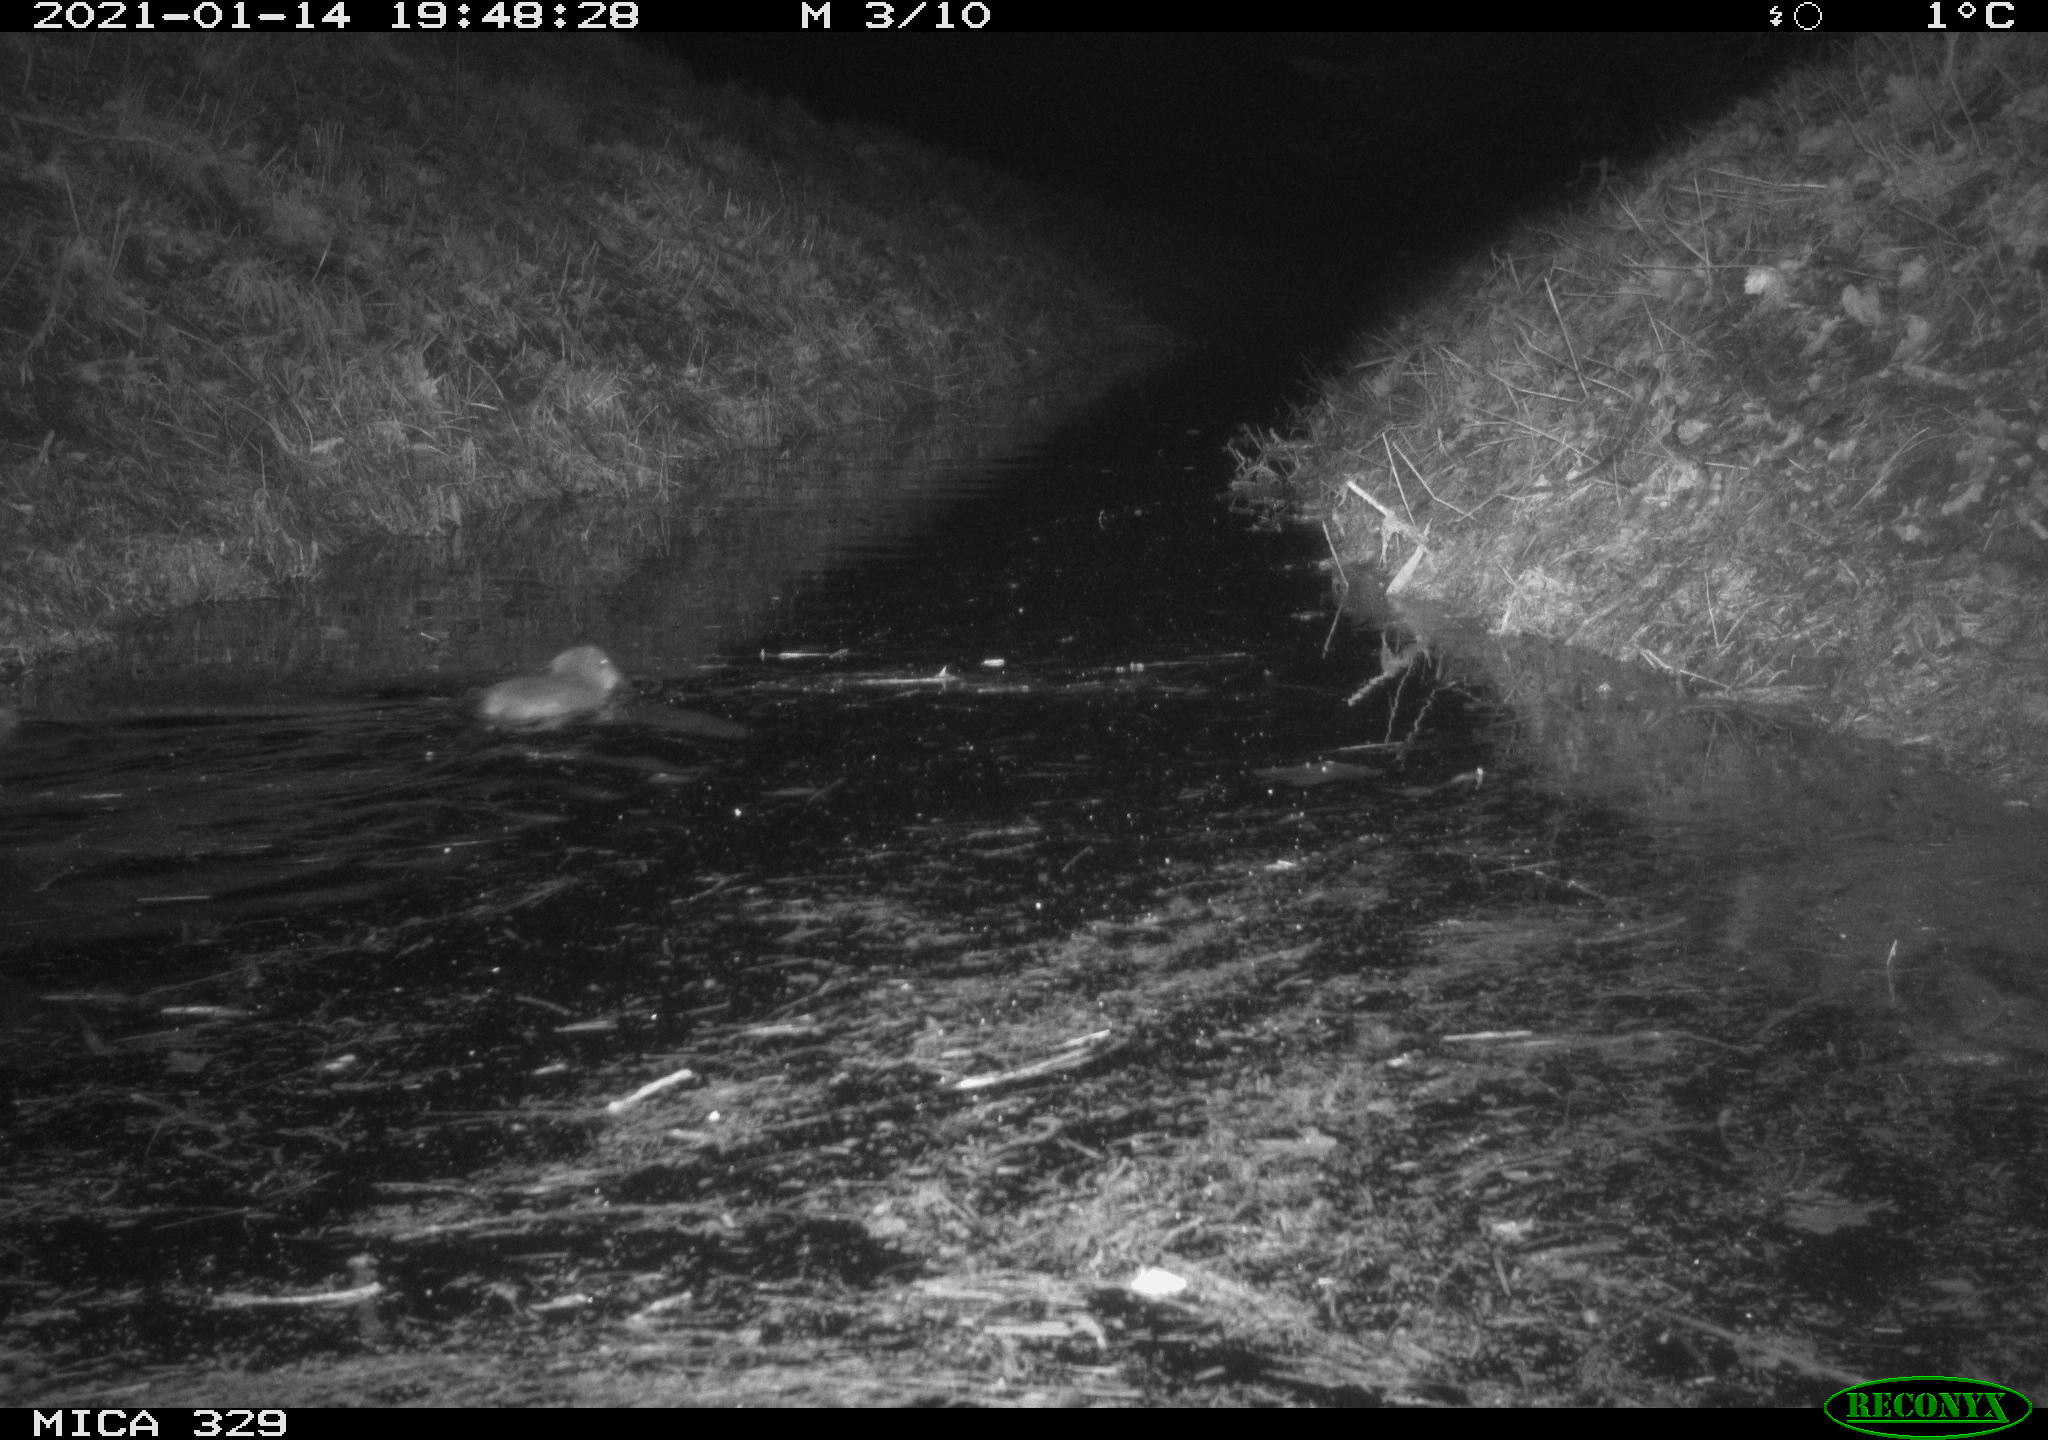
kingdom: Animalia
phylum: Chordata
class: Mammalia
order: Rodentia
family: Myocastoridae
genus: Myocastor
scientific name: Myocastor coypus
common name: Coypu
